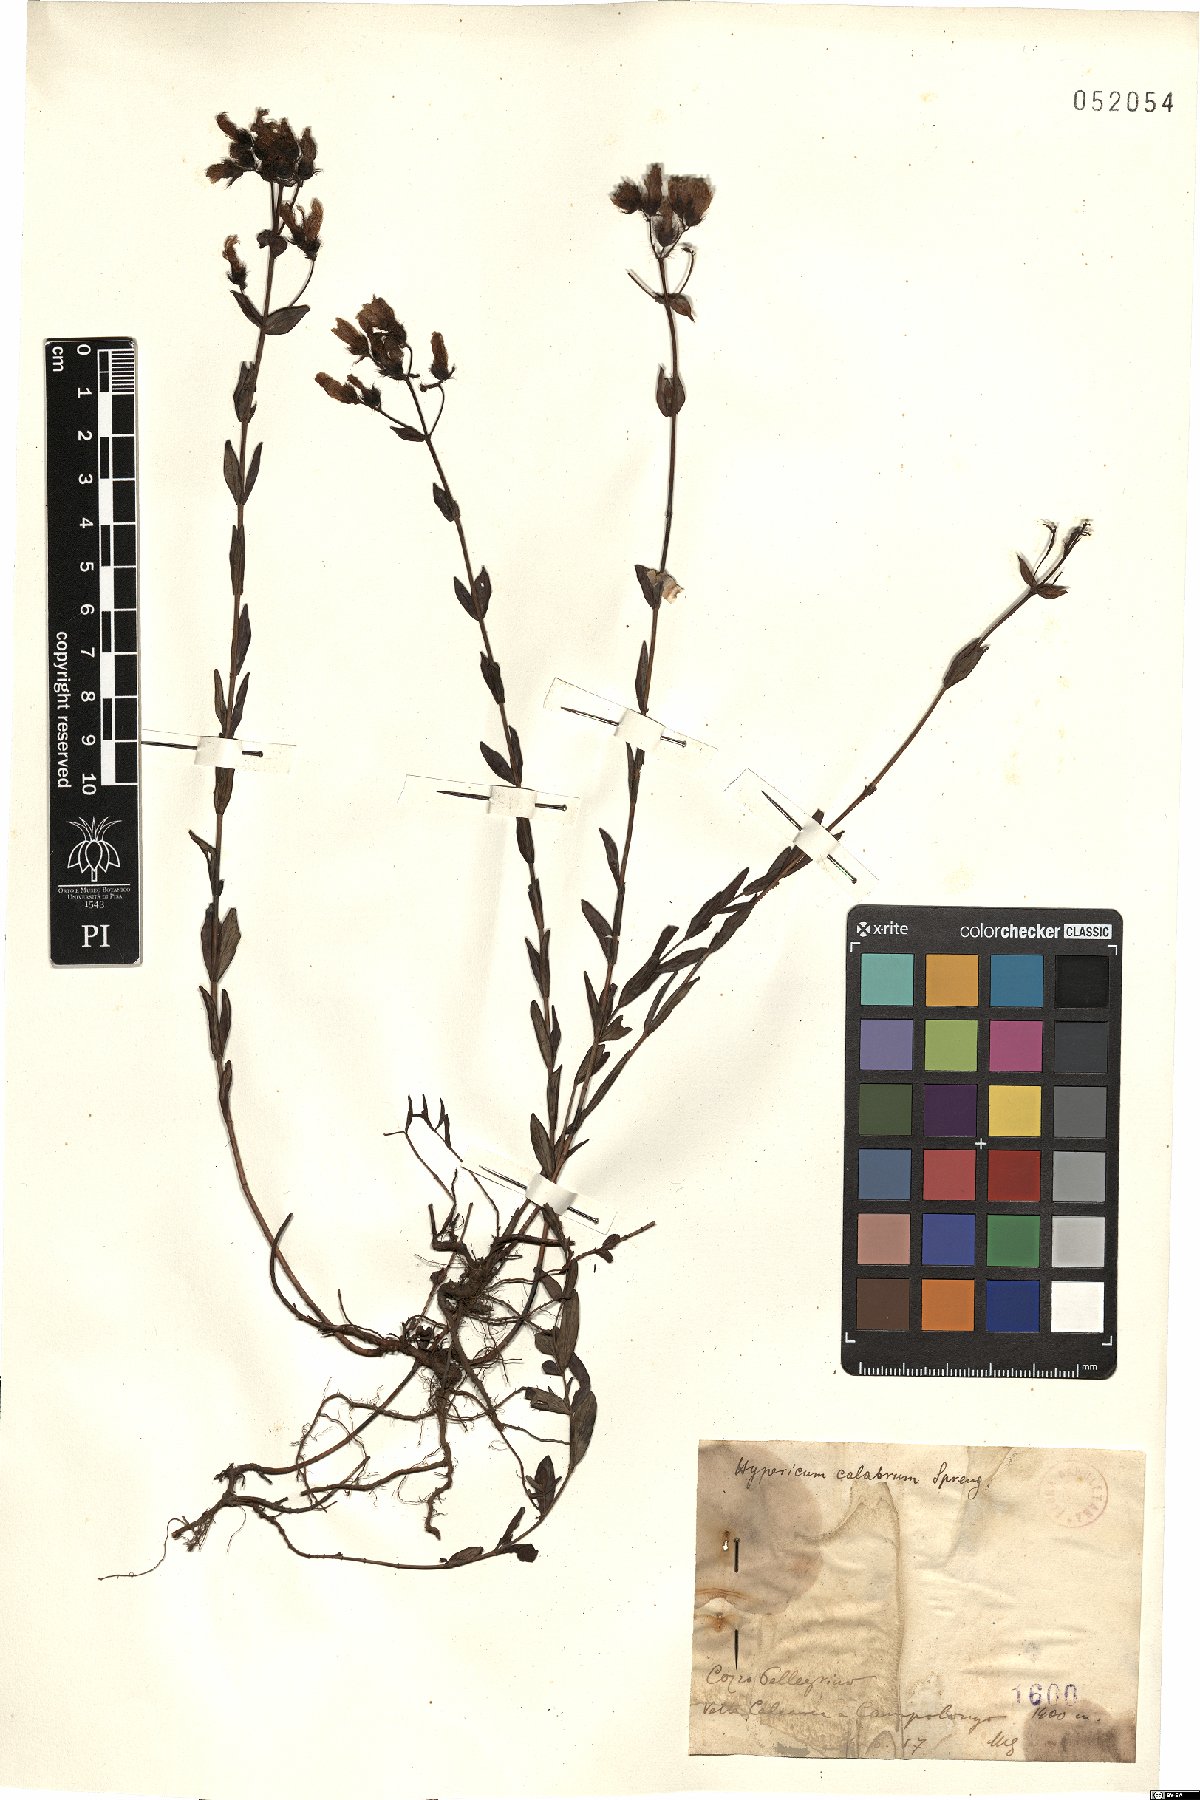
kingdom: Plantae
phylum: Tracheophyta
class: Magnoliopsida
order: Malpighiales
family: Hypericaceae
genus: Hypericum
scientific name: Hypericum barbatum
